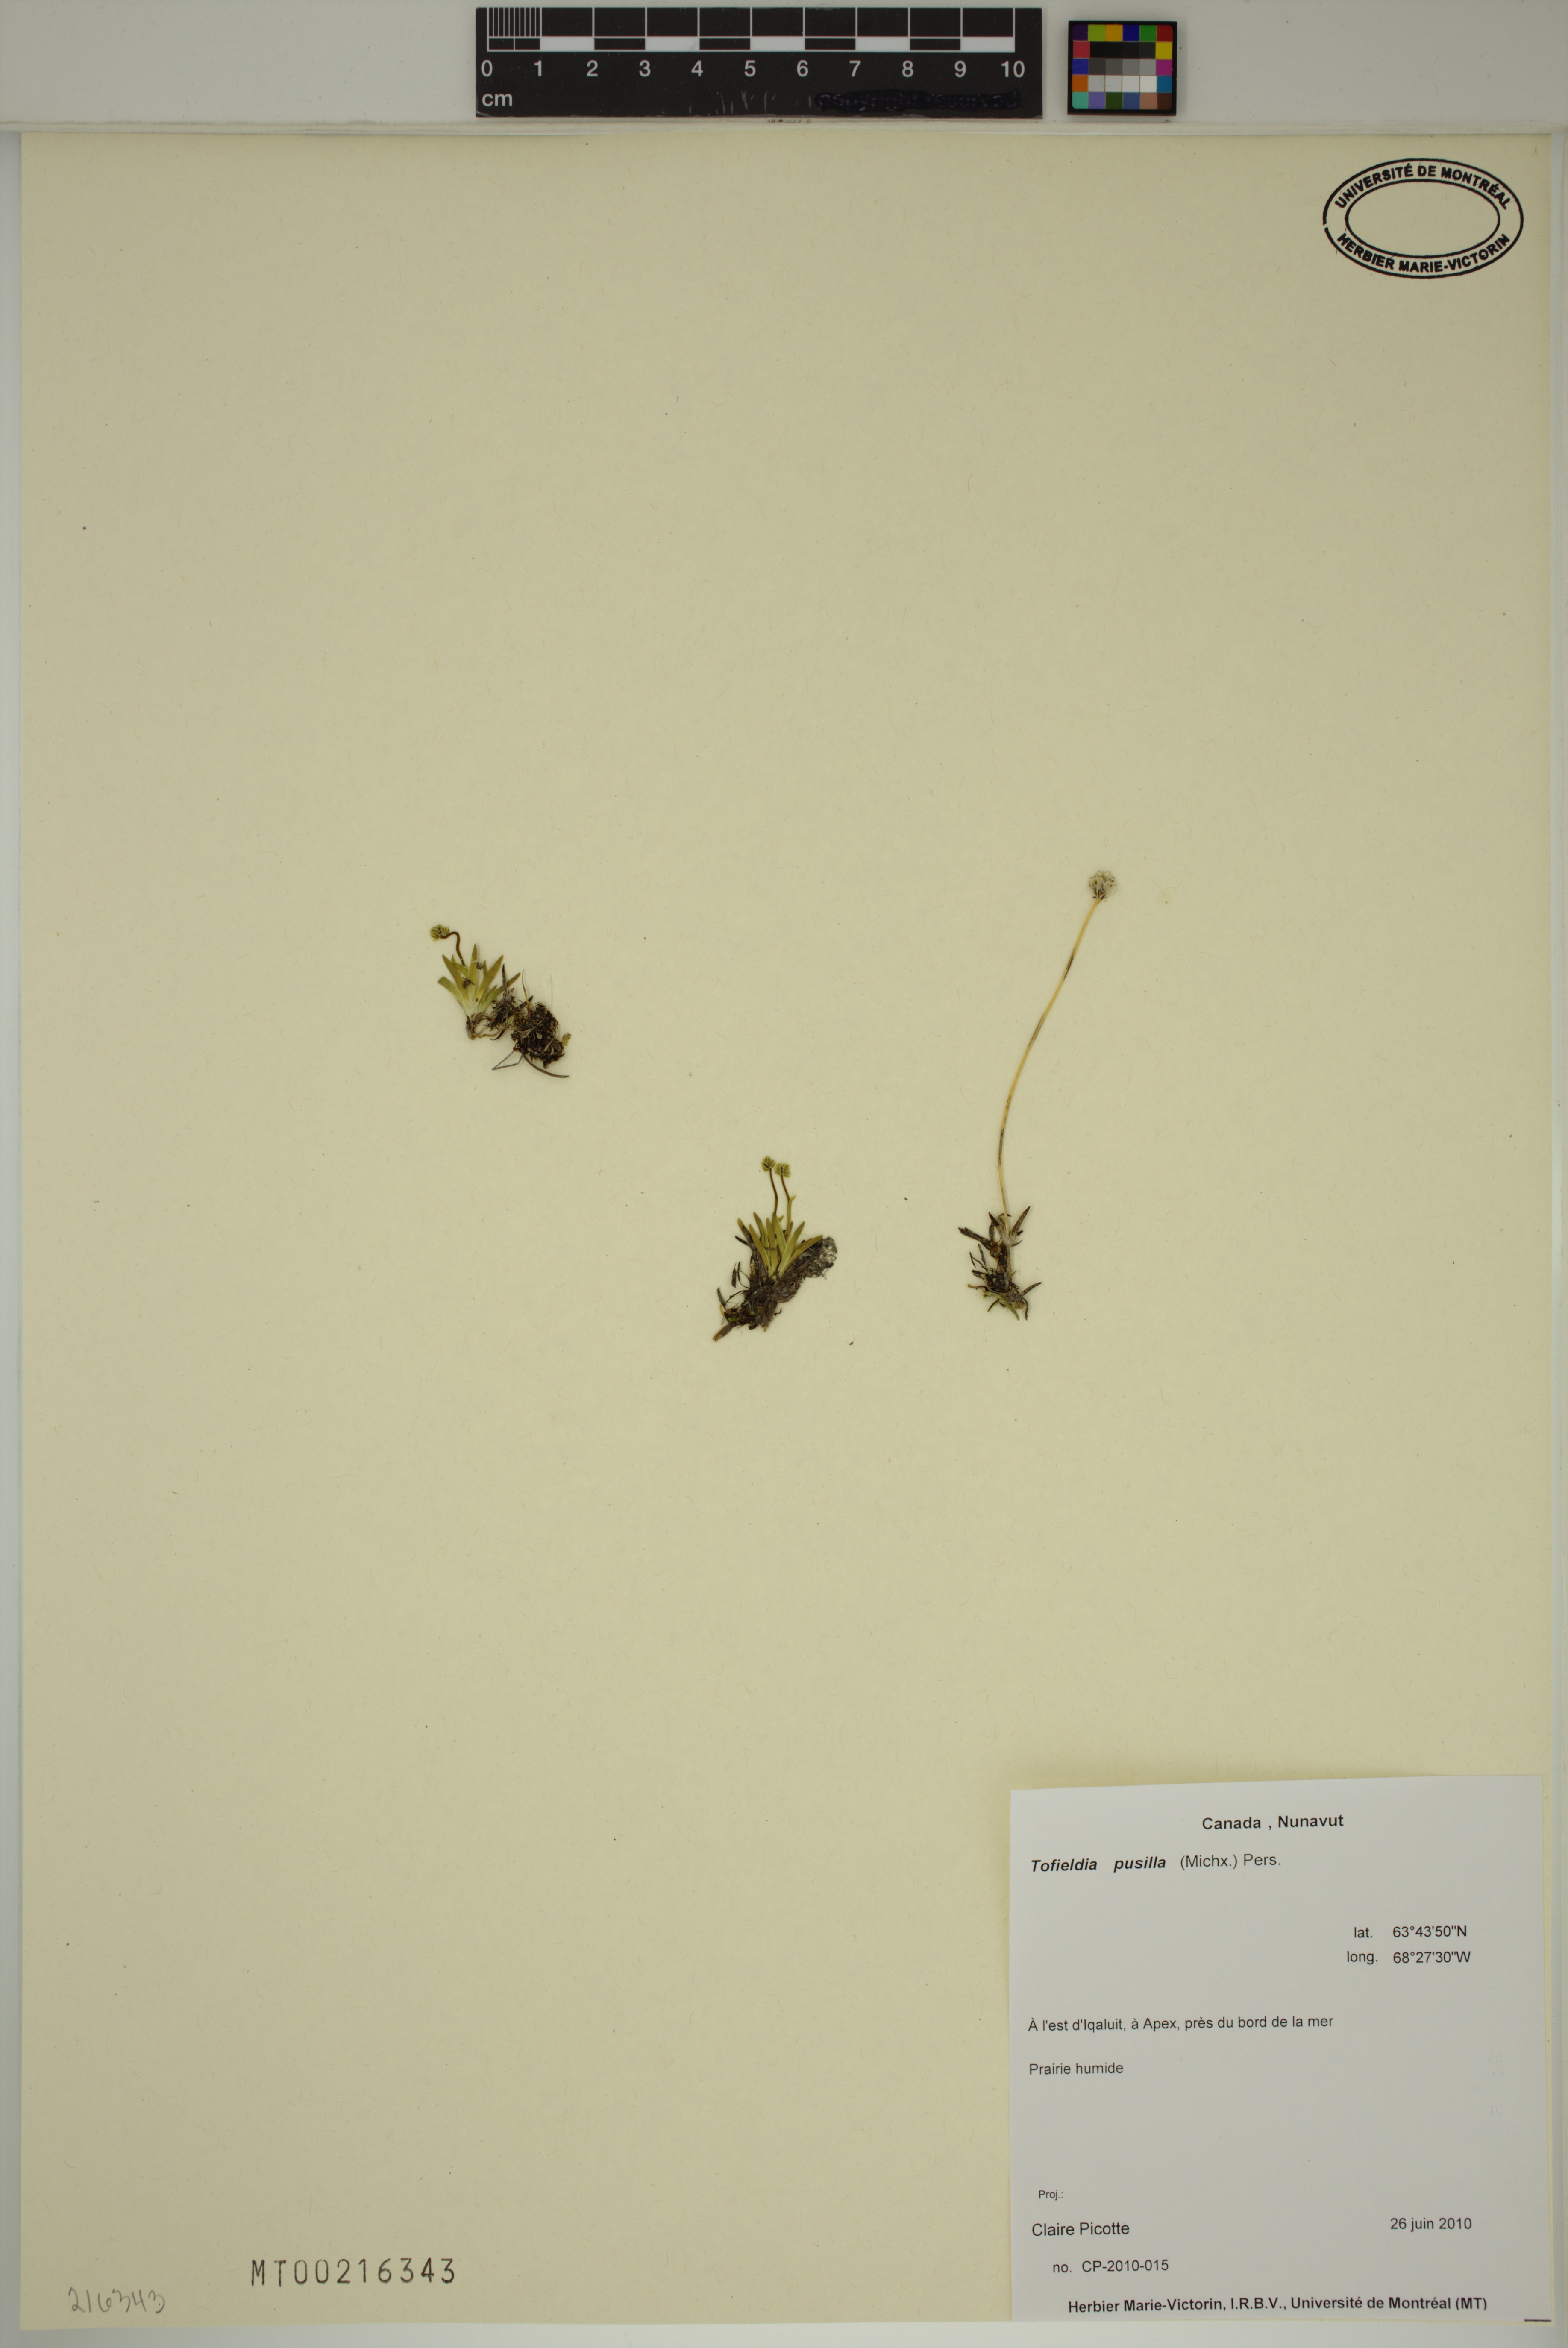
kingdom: Plantae
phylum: Tracheophyta
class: Liliopsida
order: Alismatales
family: Tofieldiaceae
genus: Tofieldia
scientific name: Tofieldia pusilla
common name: Scottish false asphodel
